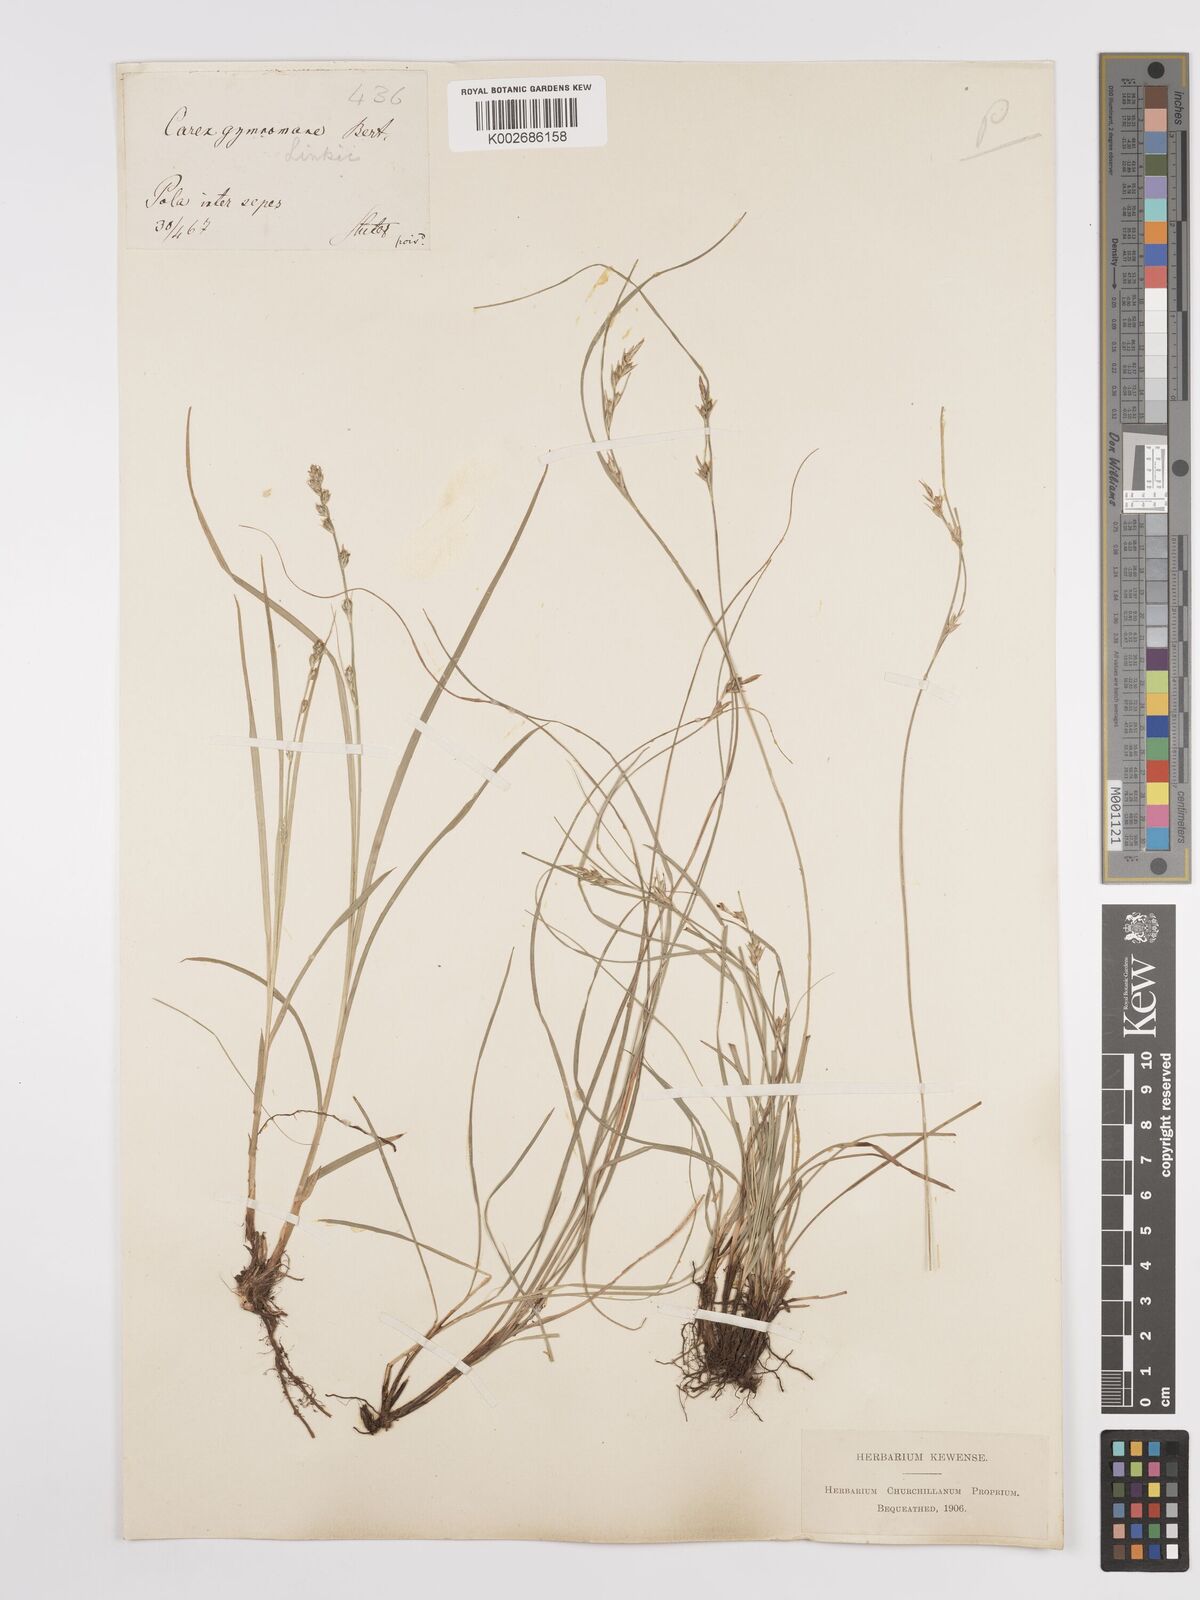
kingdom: Plantae
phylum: Tracheophyta
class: Liliopsida
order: Poales
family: Cyperaceae
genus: Carex
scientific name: Carex distachya
